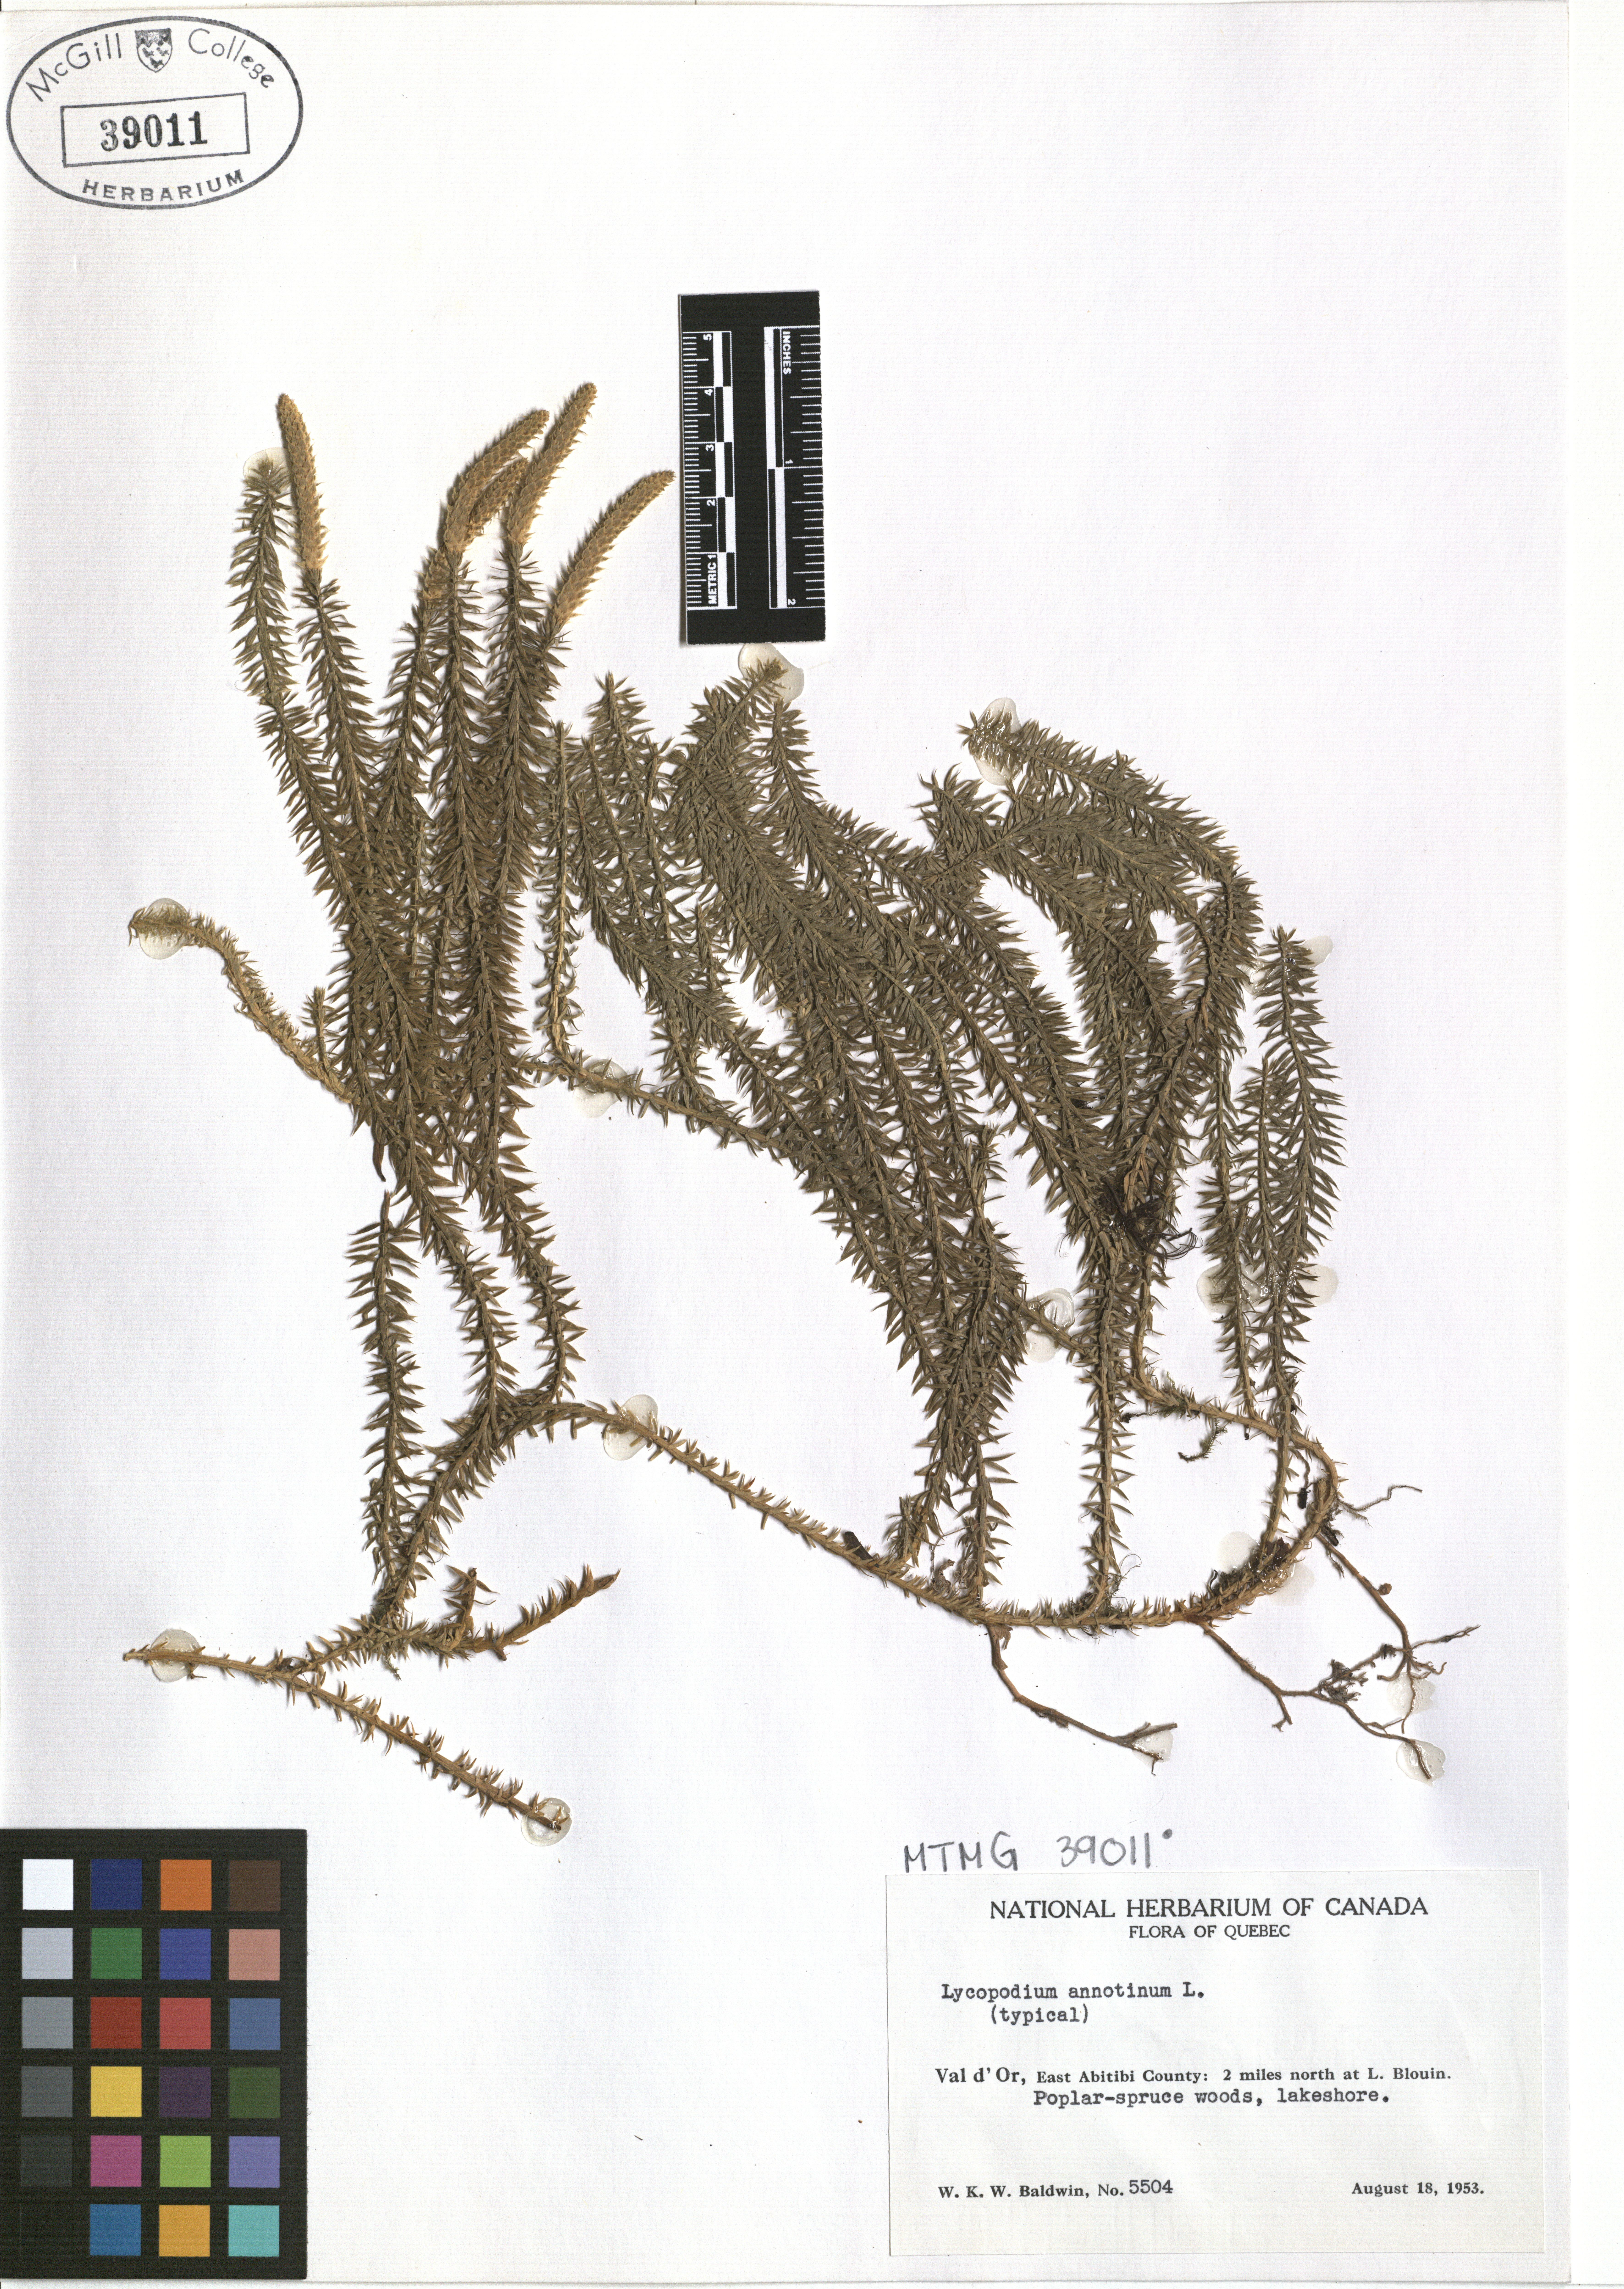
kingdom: Plantae
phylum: Tracheophyta
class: Lycopodiopsida
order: Lycopodiales
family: Lycopodiaceae
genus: Spinulum
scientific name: Spinulum annotinum
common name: Interrupted club-moss
